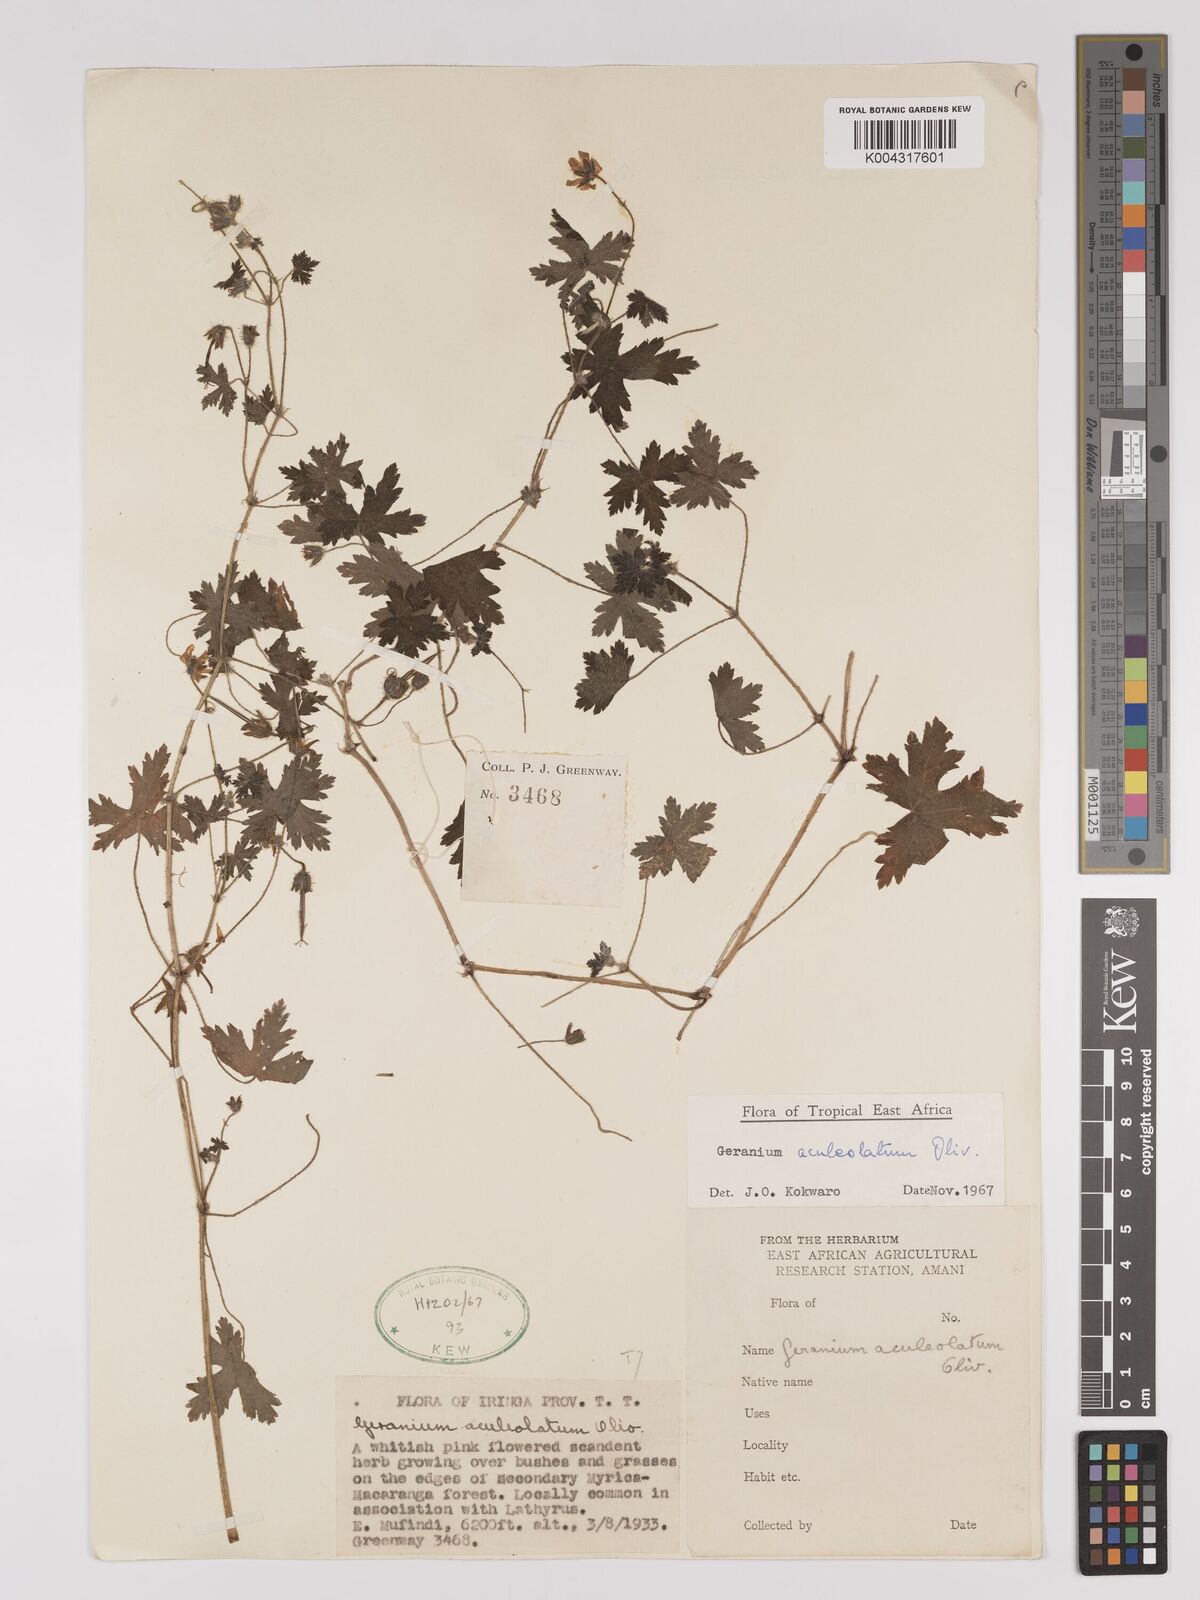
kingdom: Plantae
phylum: Tracheophyta
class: Magnoliopsida
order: Geraniales
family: Geraniaceae
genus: Geranium
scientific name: Geranium aculeolatum
